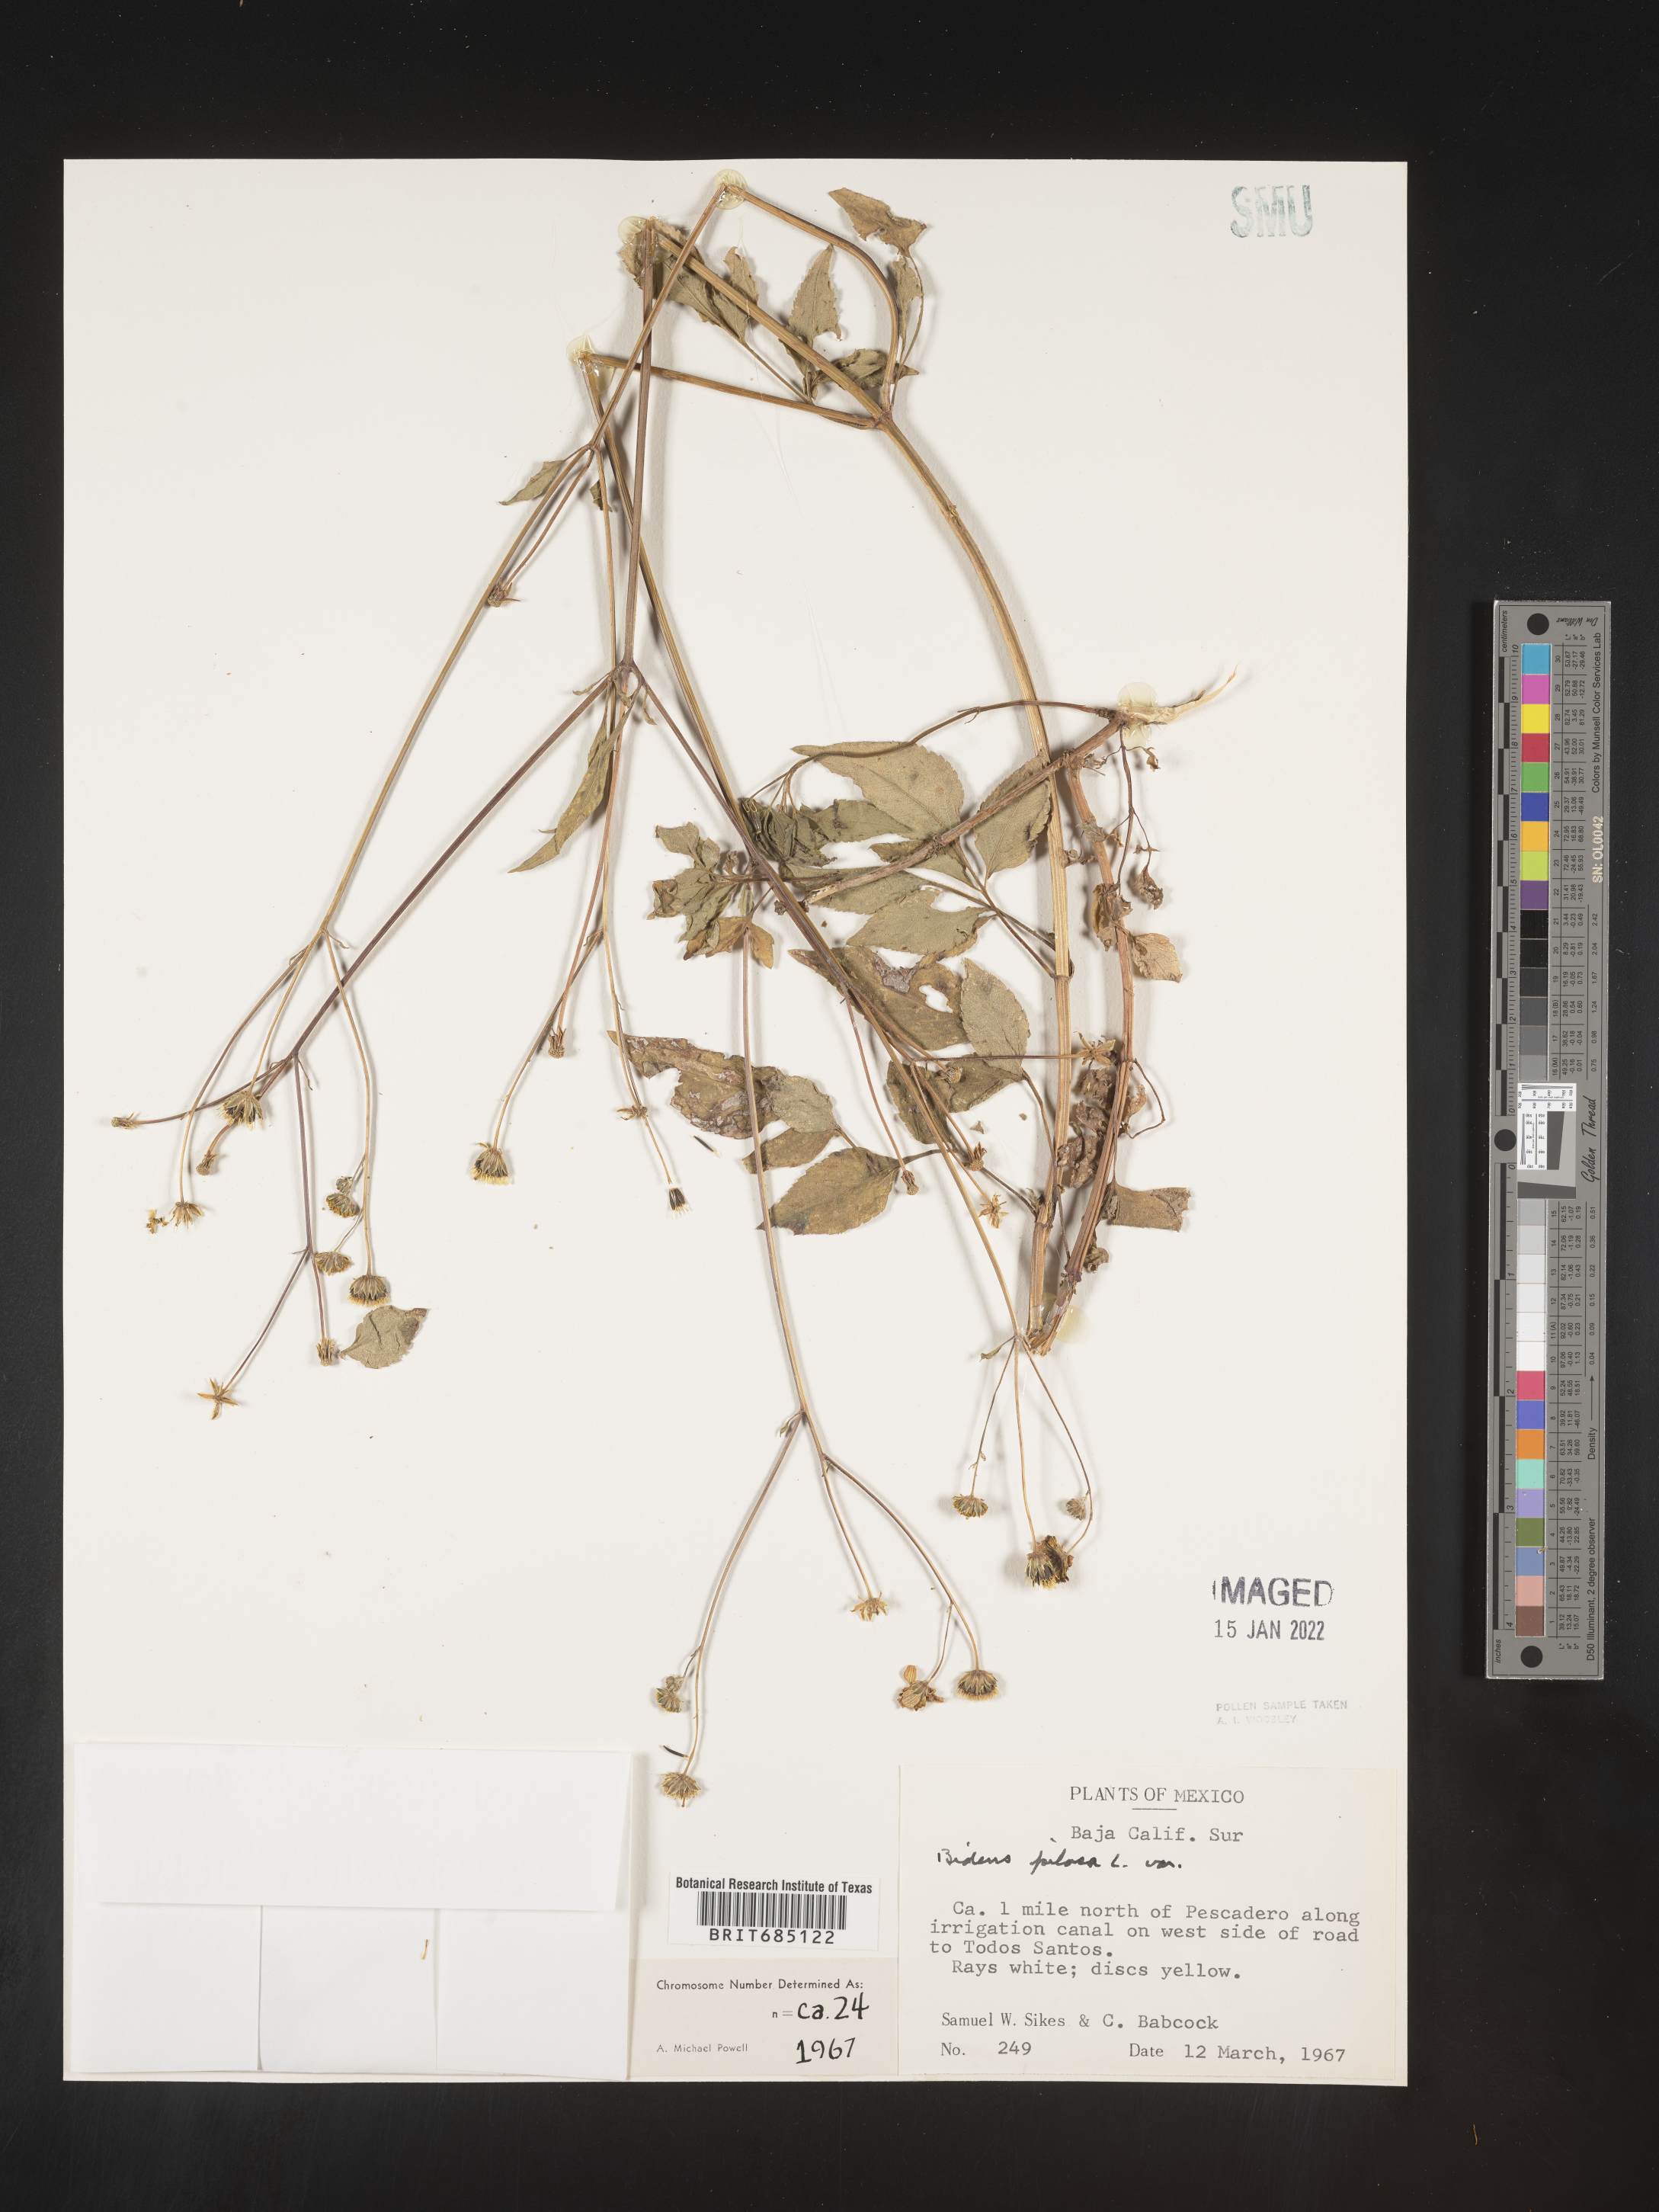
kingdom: Plantae
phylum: Tracheophyta
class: Magnoliopsida
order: Asterales
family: Asteraceae
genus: Bidens
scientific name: Bidens
